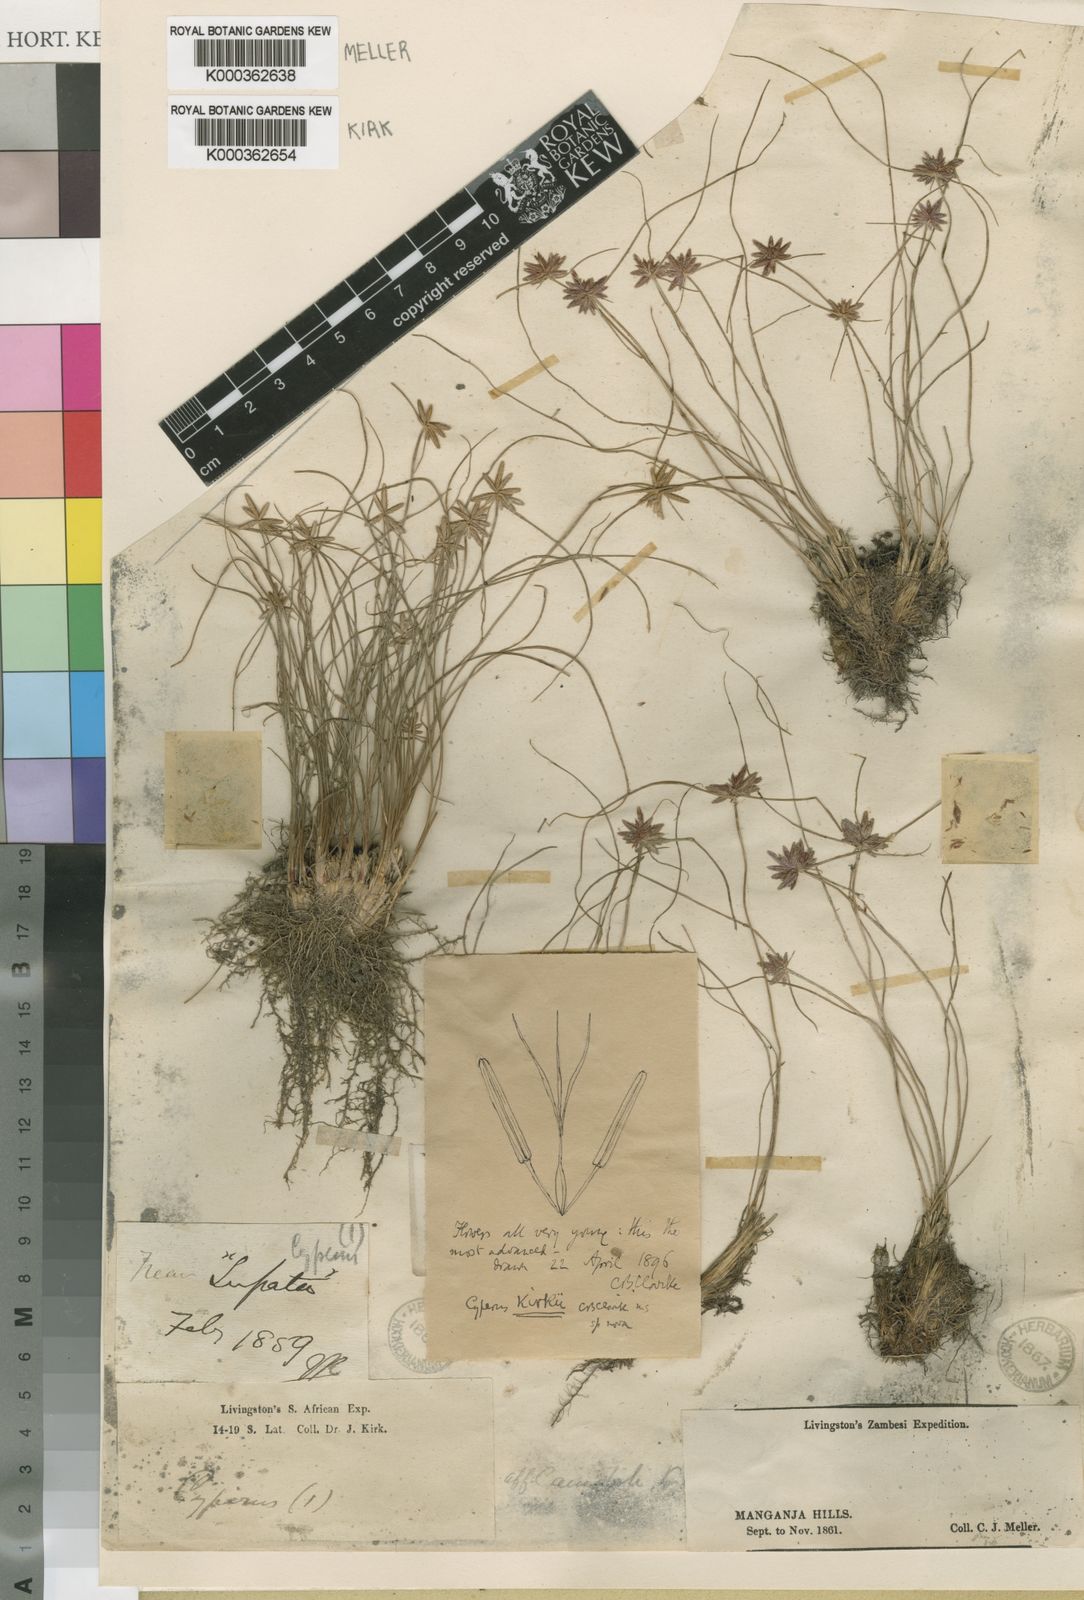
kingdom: Plantae
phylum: Tracheophyta
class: Liliopsida
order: Poales
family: Cyperaceae
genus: Cyperus
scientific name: Cyperus semitrifidus
